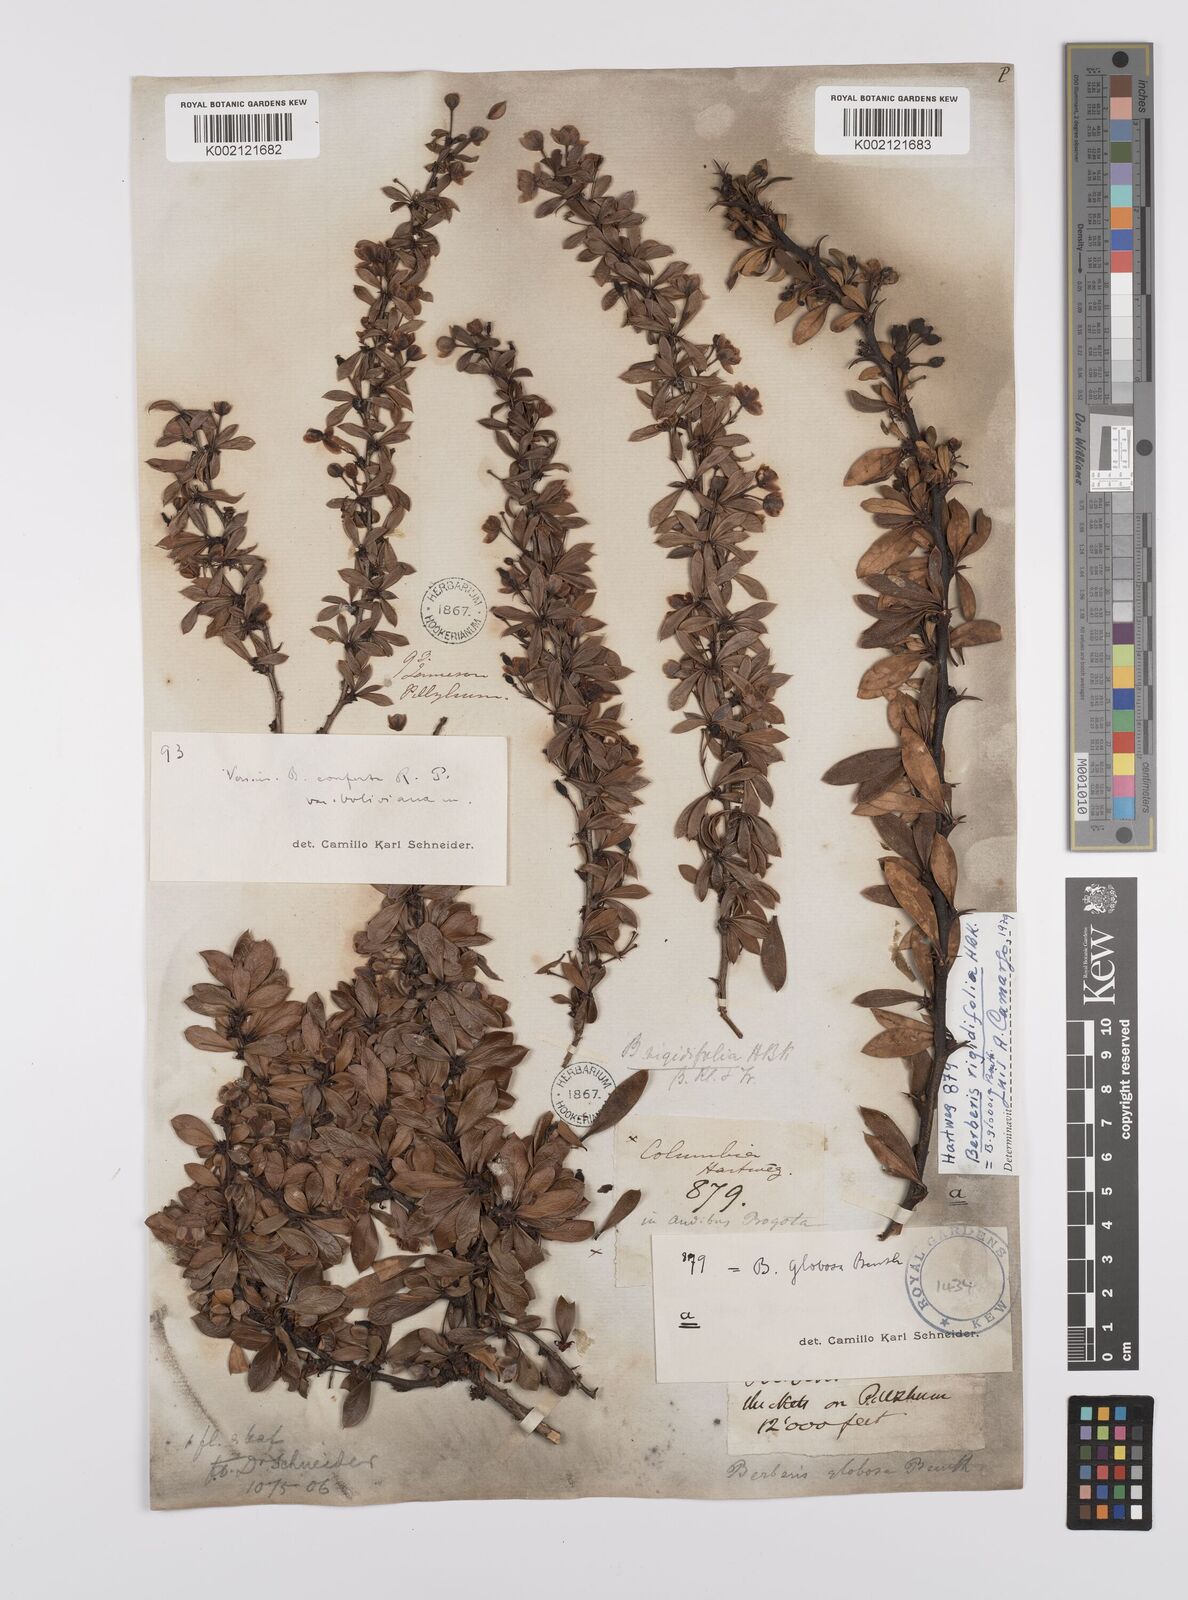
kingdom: Plantae
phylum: Tracheophyta
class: Magnoliopsida
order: Ranunculales
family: Berberidaceae
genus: Berberis
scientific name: Berberis lutea
